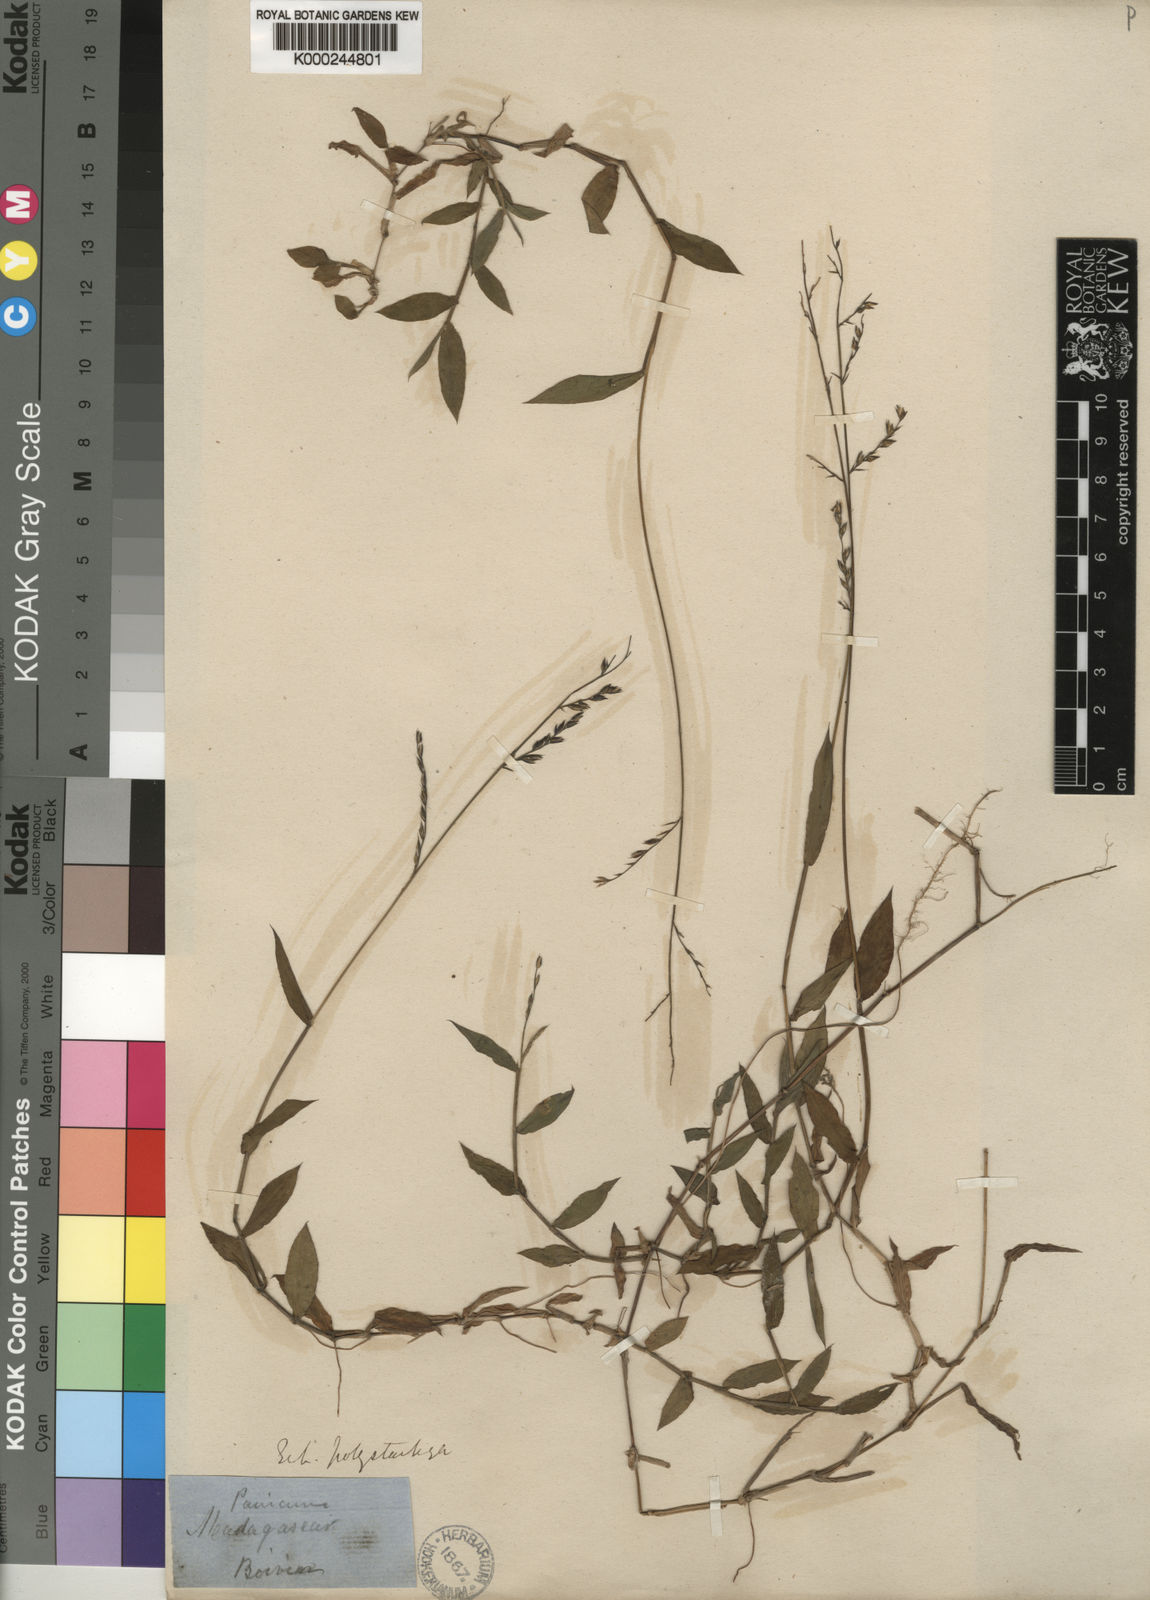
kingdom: Plantae
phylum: Tracheophyta
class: Liliopsida
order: Poales
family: Poaceae
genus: Pseudechinolaena
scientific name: Pseudechinolaena polystachya
